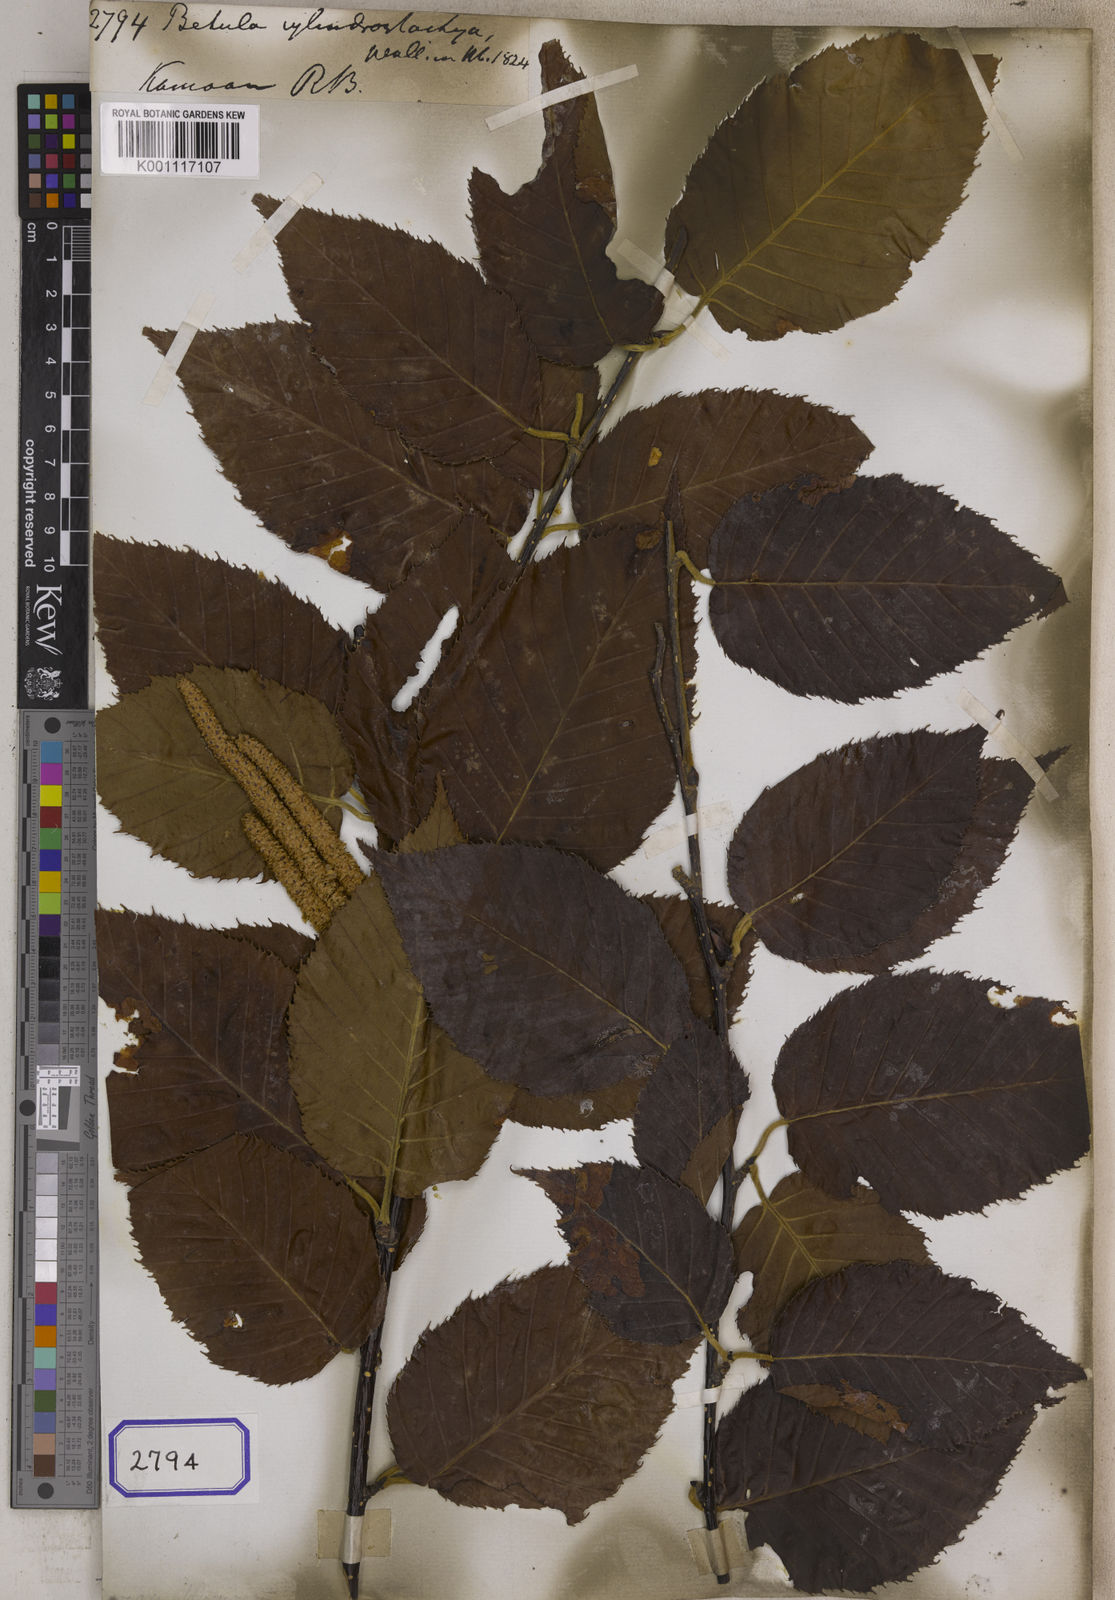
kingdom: Plantae
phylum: Tracheophyta
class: Magnoliopsida
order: Fagales
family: Betulaceae
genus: Betula
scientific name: Betula cylindrostachya
